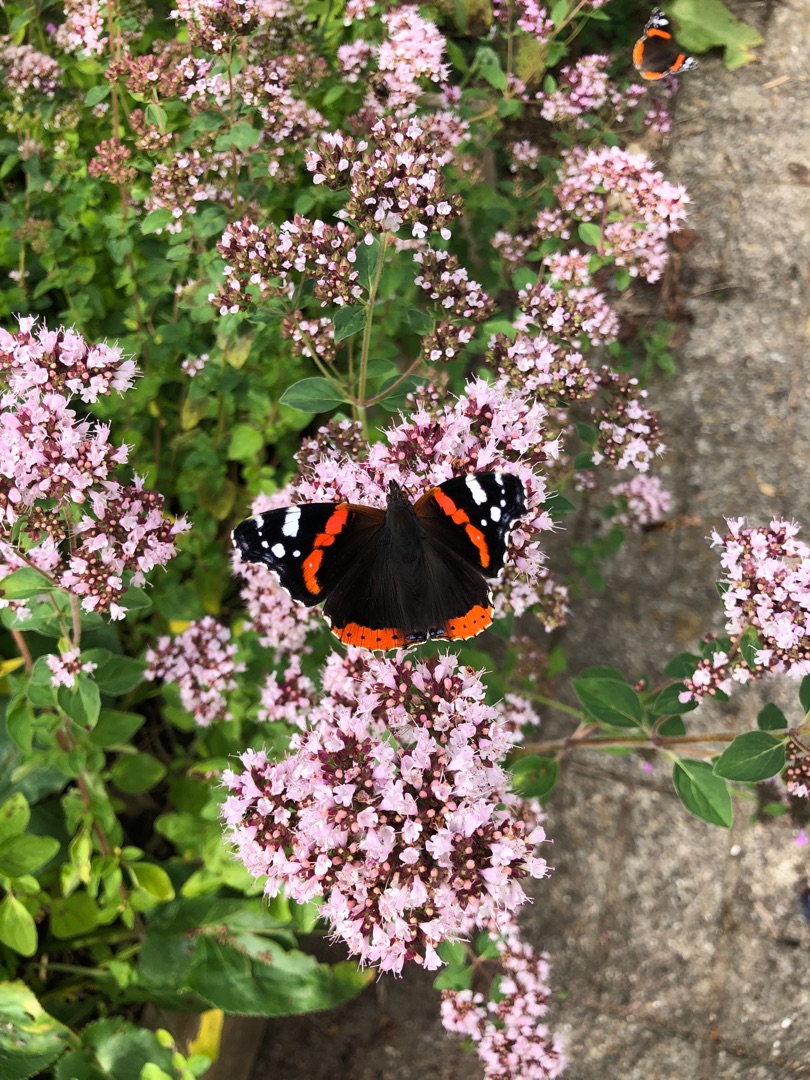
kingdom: Animalia
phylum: Arthropoda
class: Insecta
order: Lepidoptera
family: Nymphalidae
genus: Vanessa
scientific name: Vanessa atalanta
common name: Admiral
